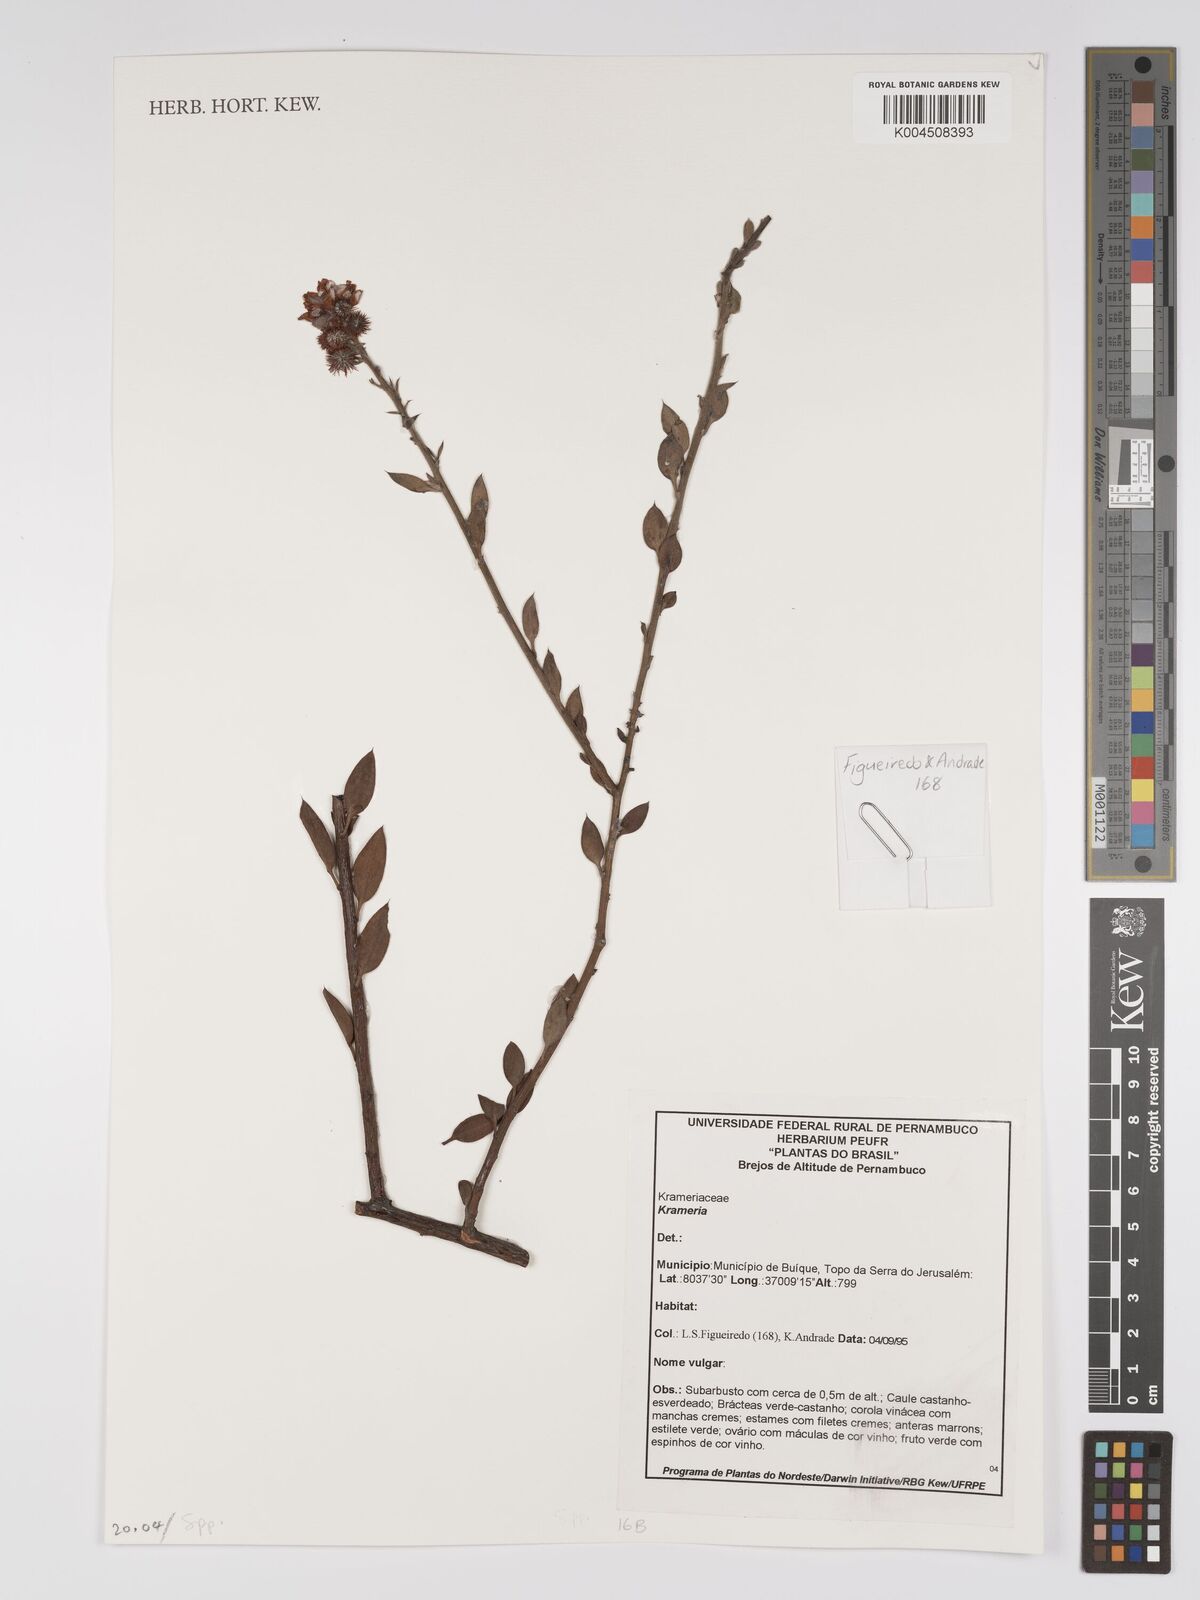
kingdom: Plantae
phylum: Tracheophyta
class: Magnoliopsida
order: Zygophyllales
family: Krameriaceae
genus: Krameria
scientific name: Krameria
